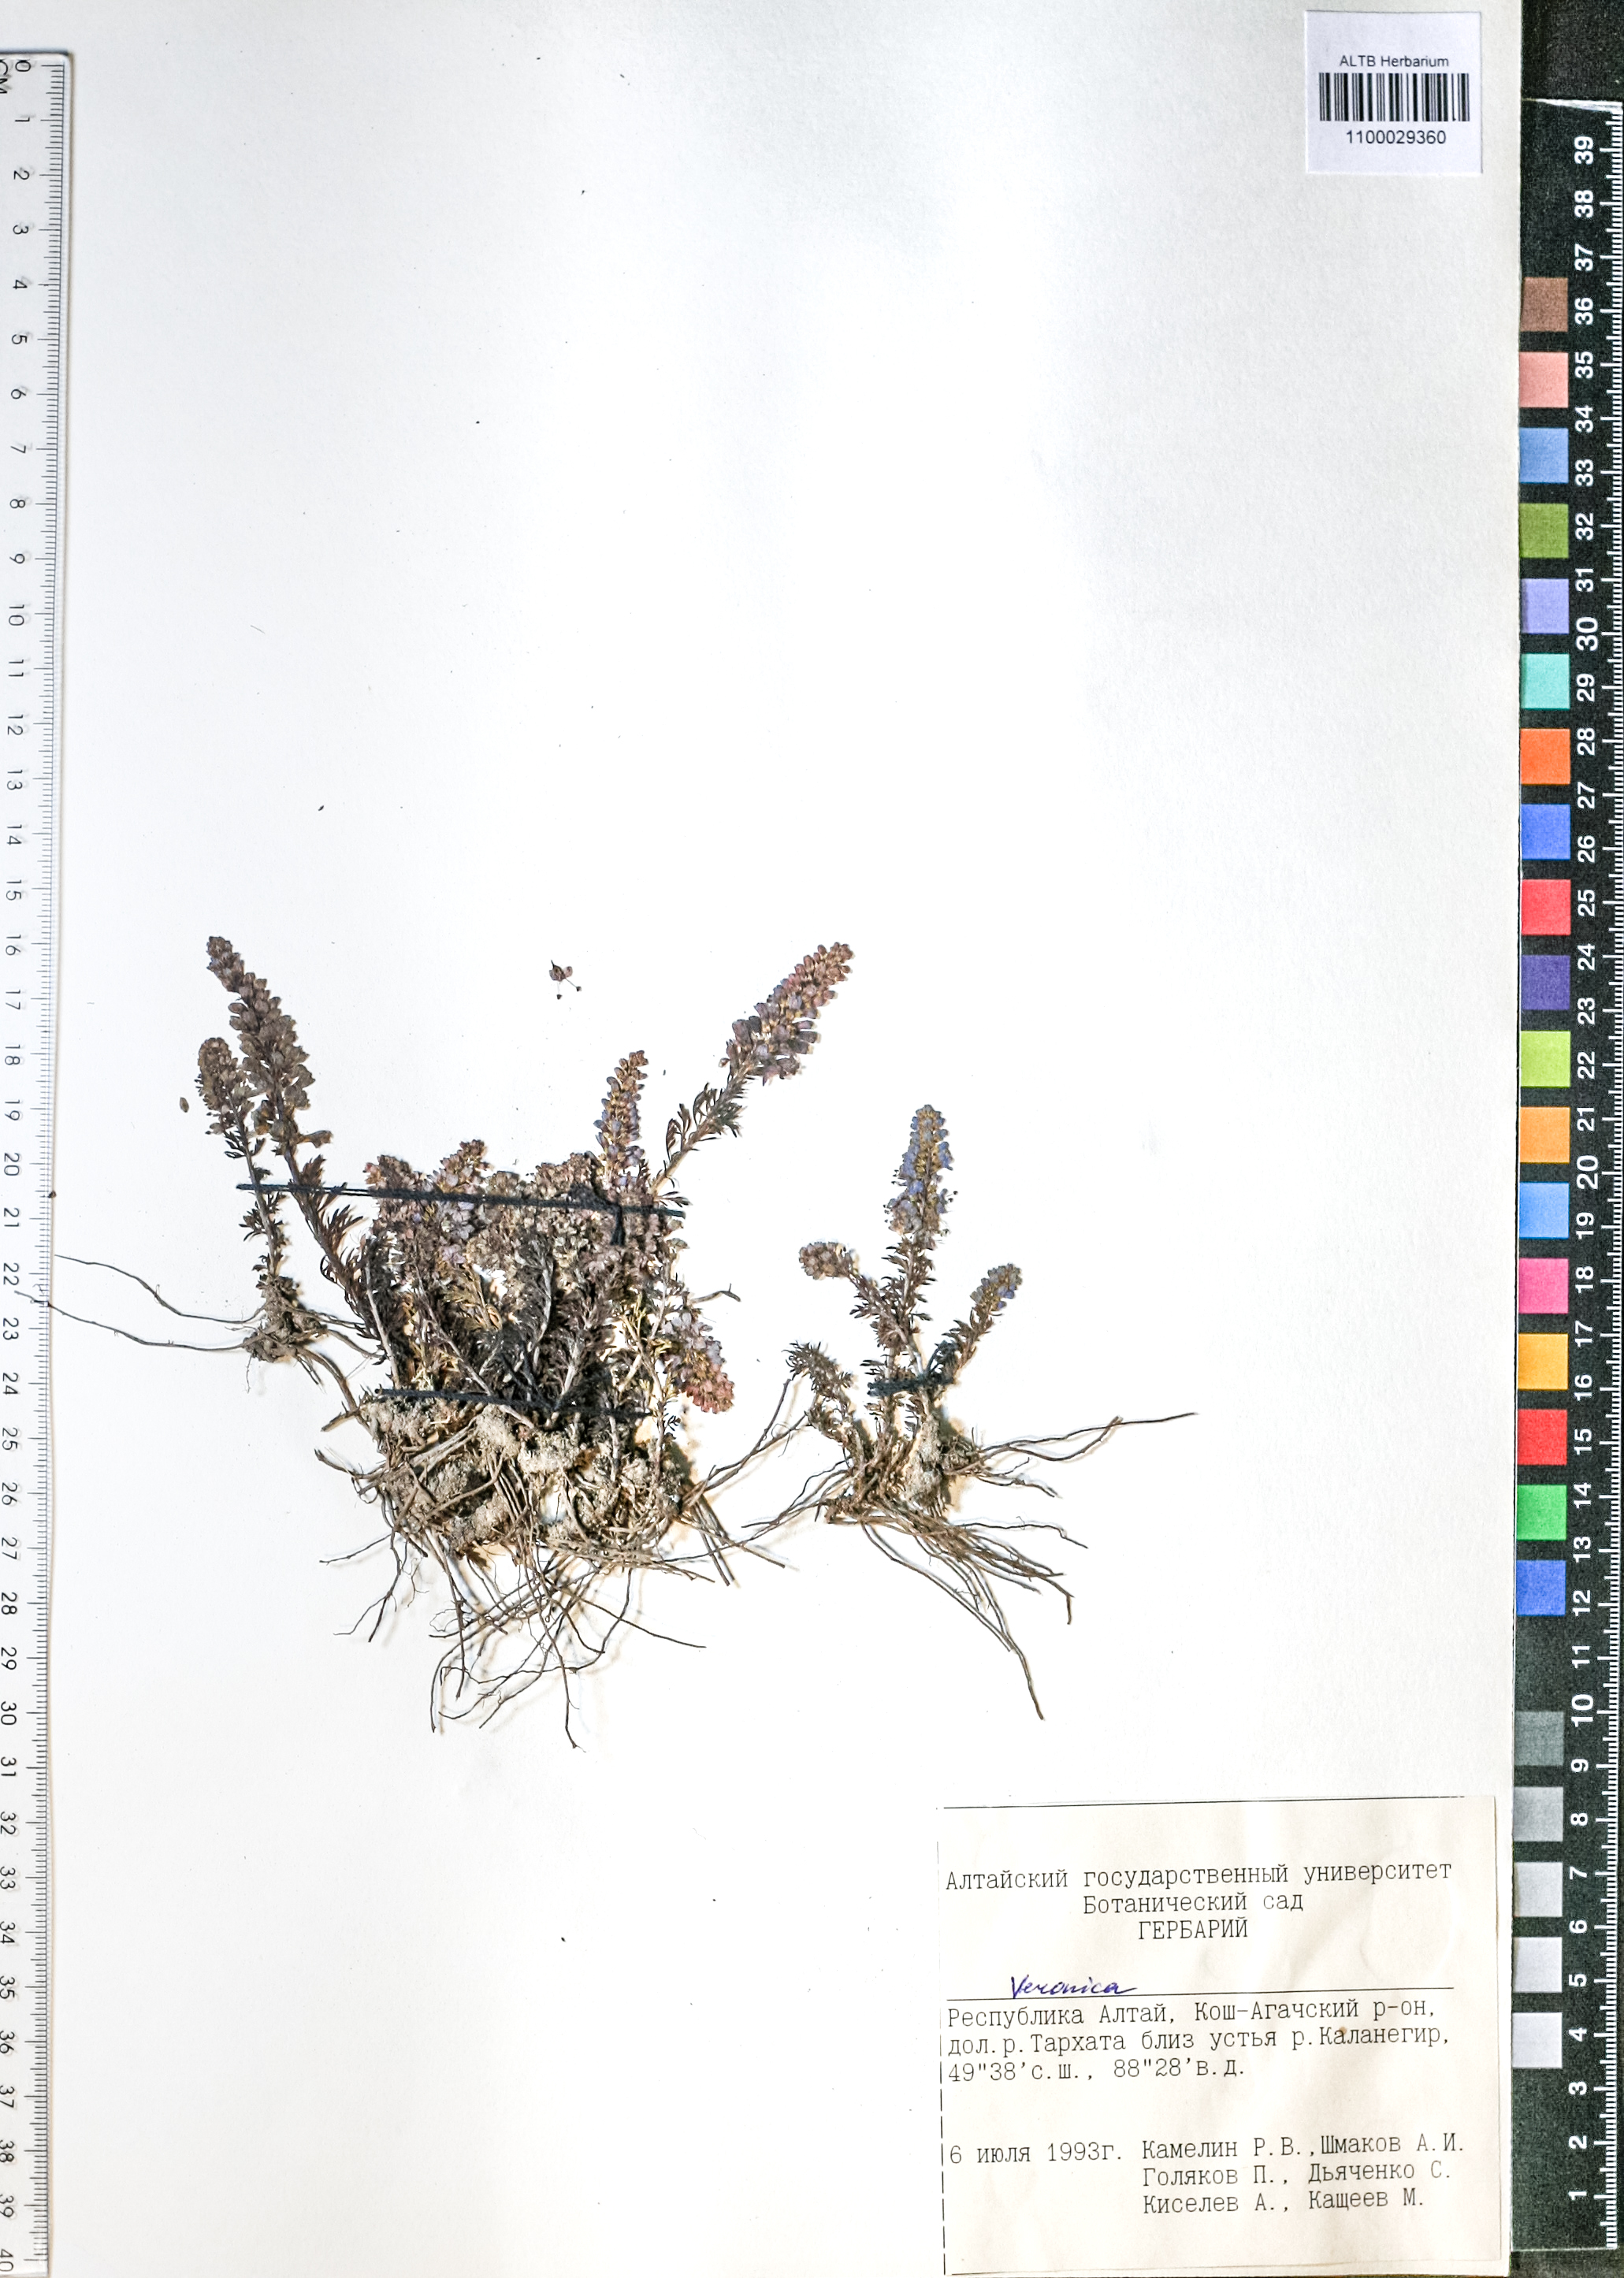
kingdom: Plantae
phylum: Tracheophyta
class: Magnoliopsida
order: Lamiales
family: Plantaginaceae
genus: Veronica
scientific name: Veronica
